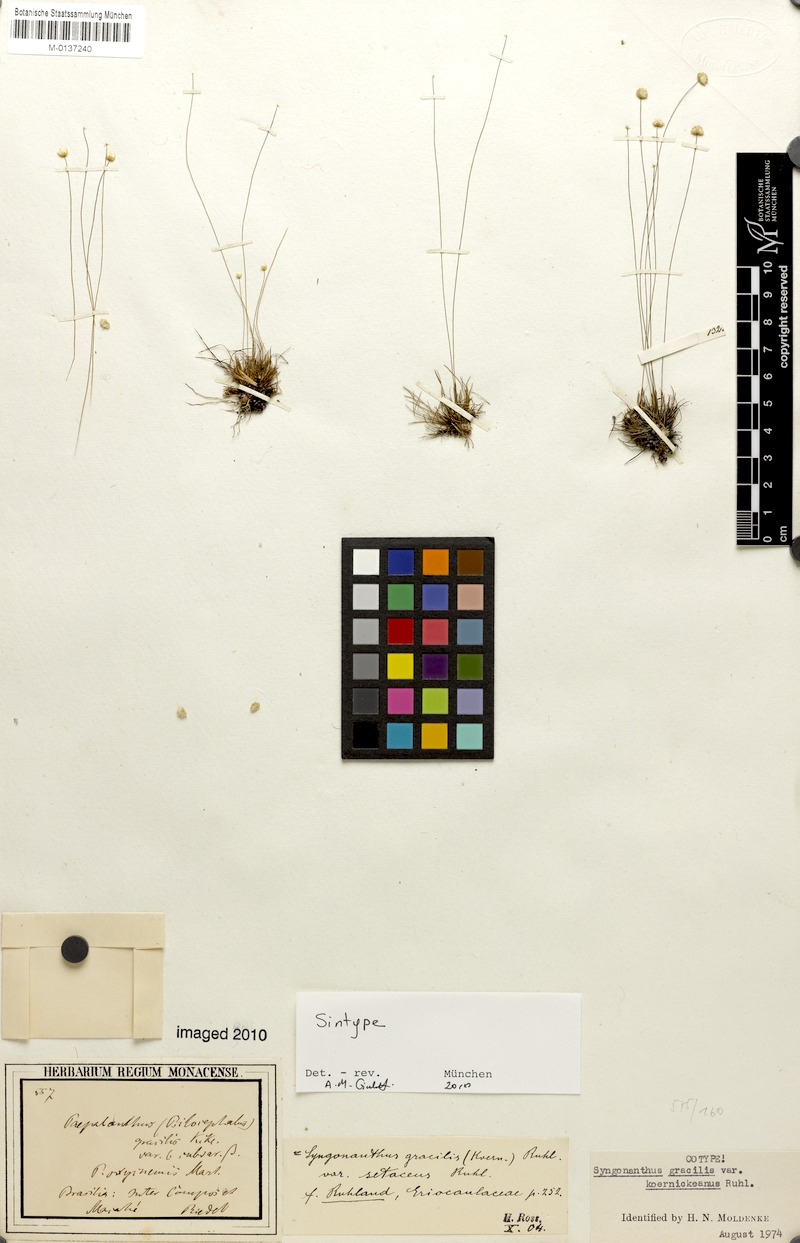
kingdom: Plantae
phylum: Tracheophyta
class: Liliopsida
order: Poales
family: Eriocaulaceae
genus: Syngonanthus
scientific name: Syngonanthus gracilis
